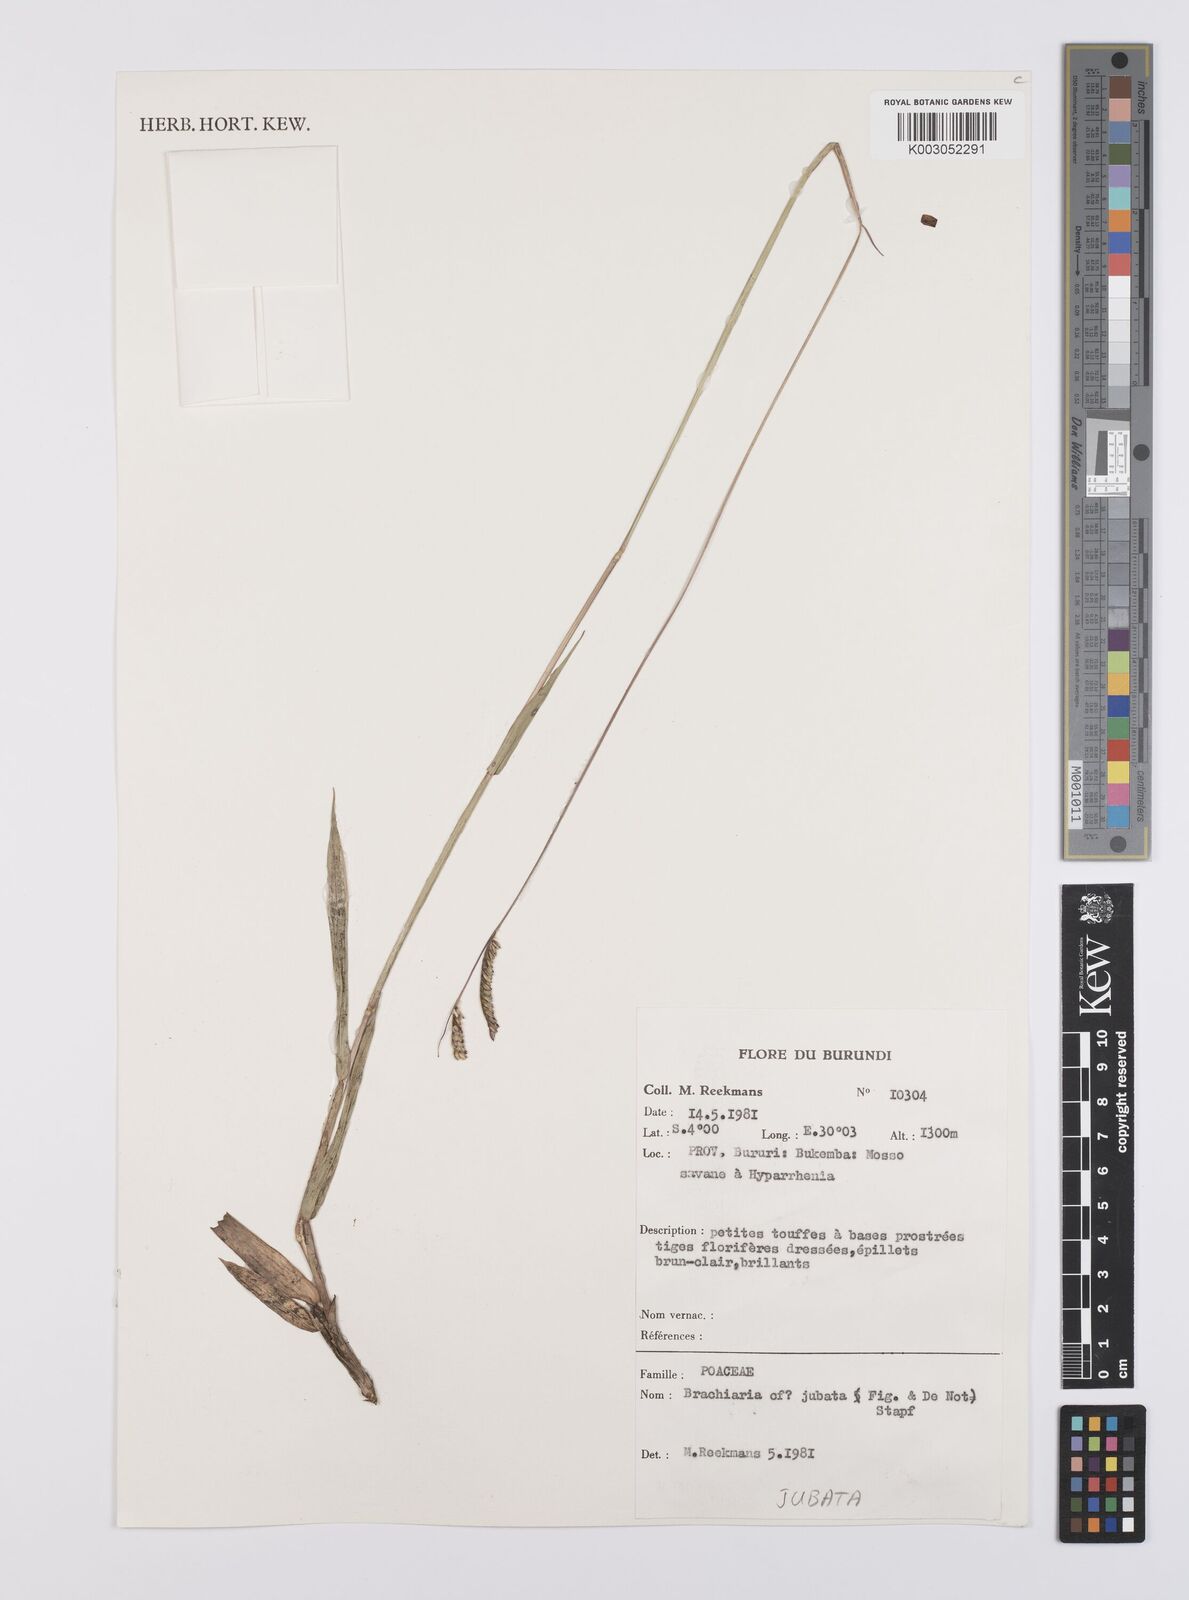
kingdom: Plantae
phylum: Tracheophyta
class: Liliopsida
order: Poales
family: Poaceae
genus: Urochloa
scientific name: Urochloa jubata
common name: Buffalograss
